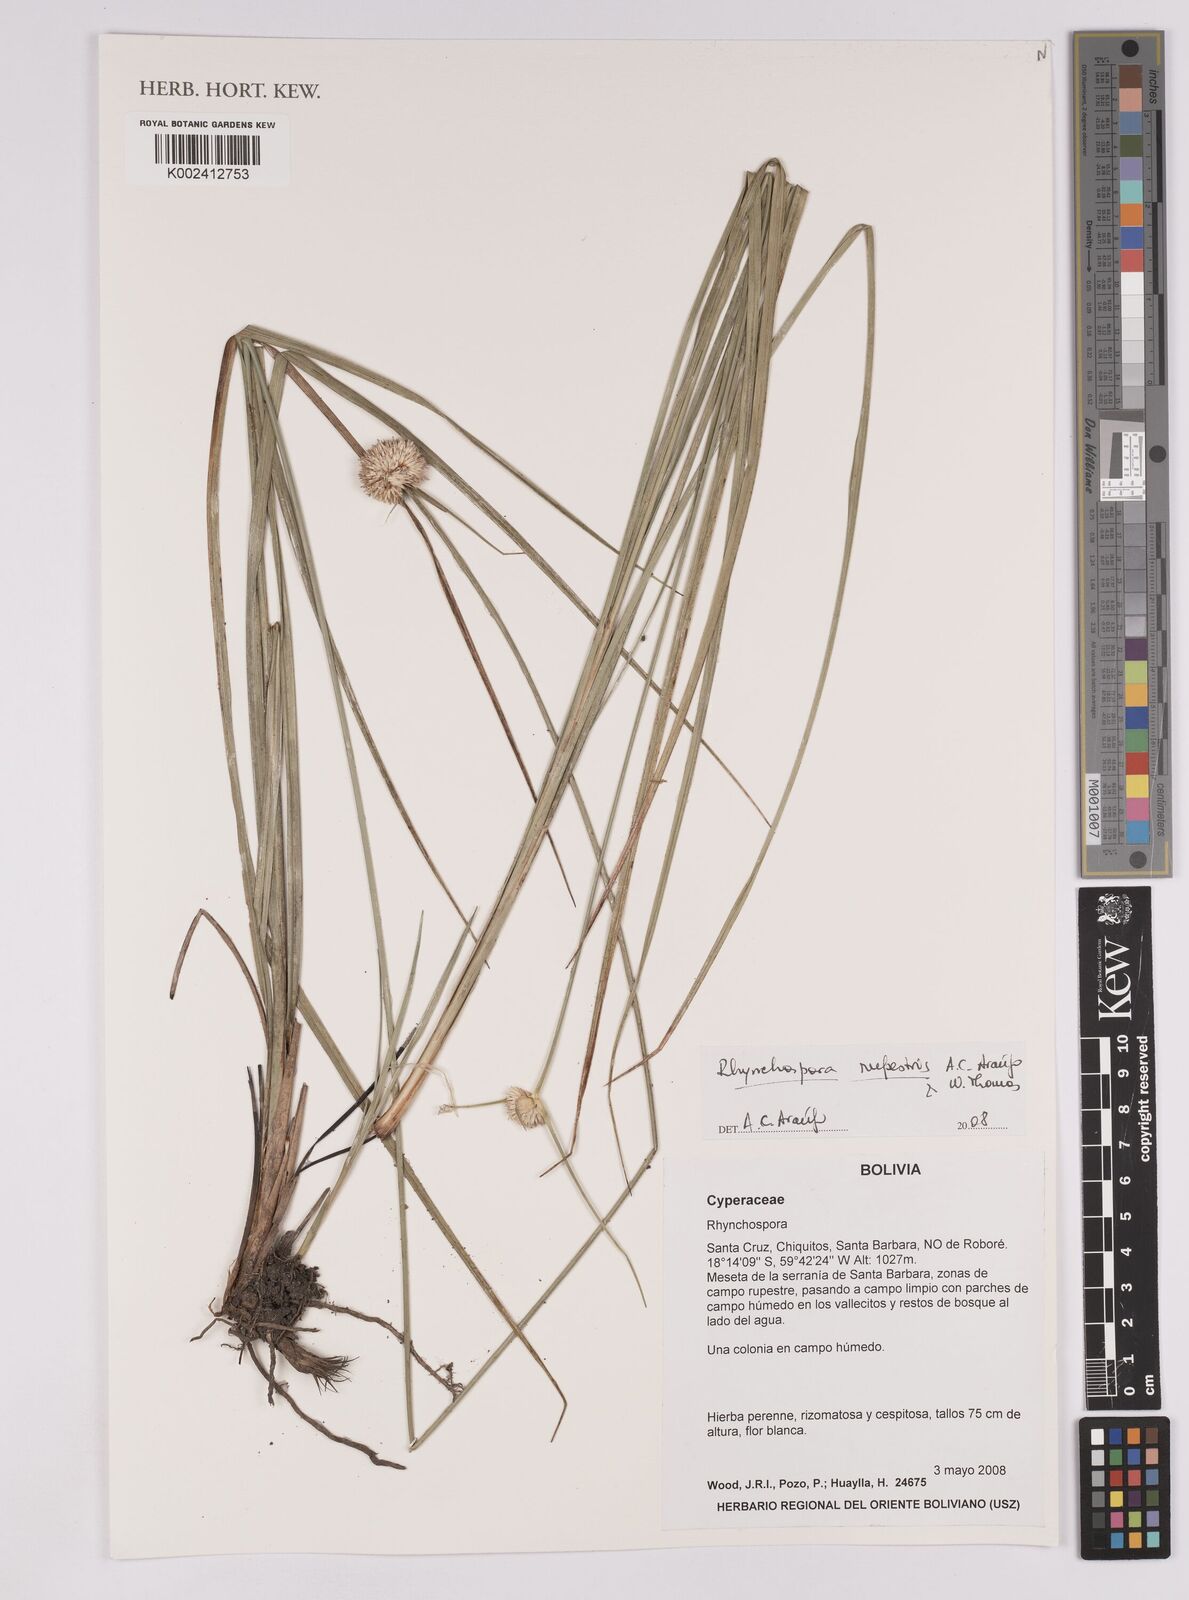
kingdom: Plantae
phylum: Tracheophyta
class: Liliopsida
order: Poales
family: Cyperaceae
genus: Rhynchospora
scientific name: Rhynchospora rupestris
